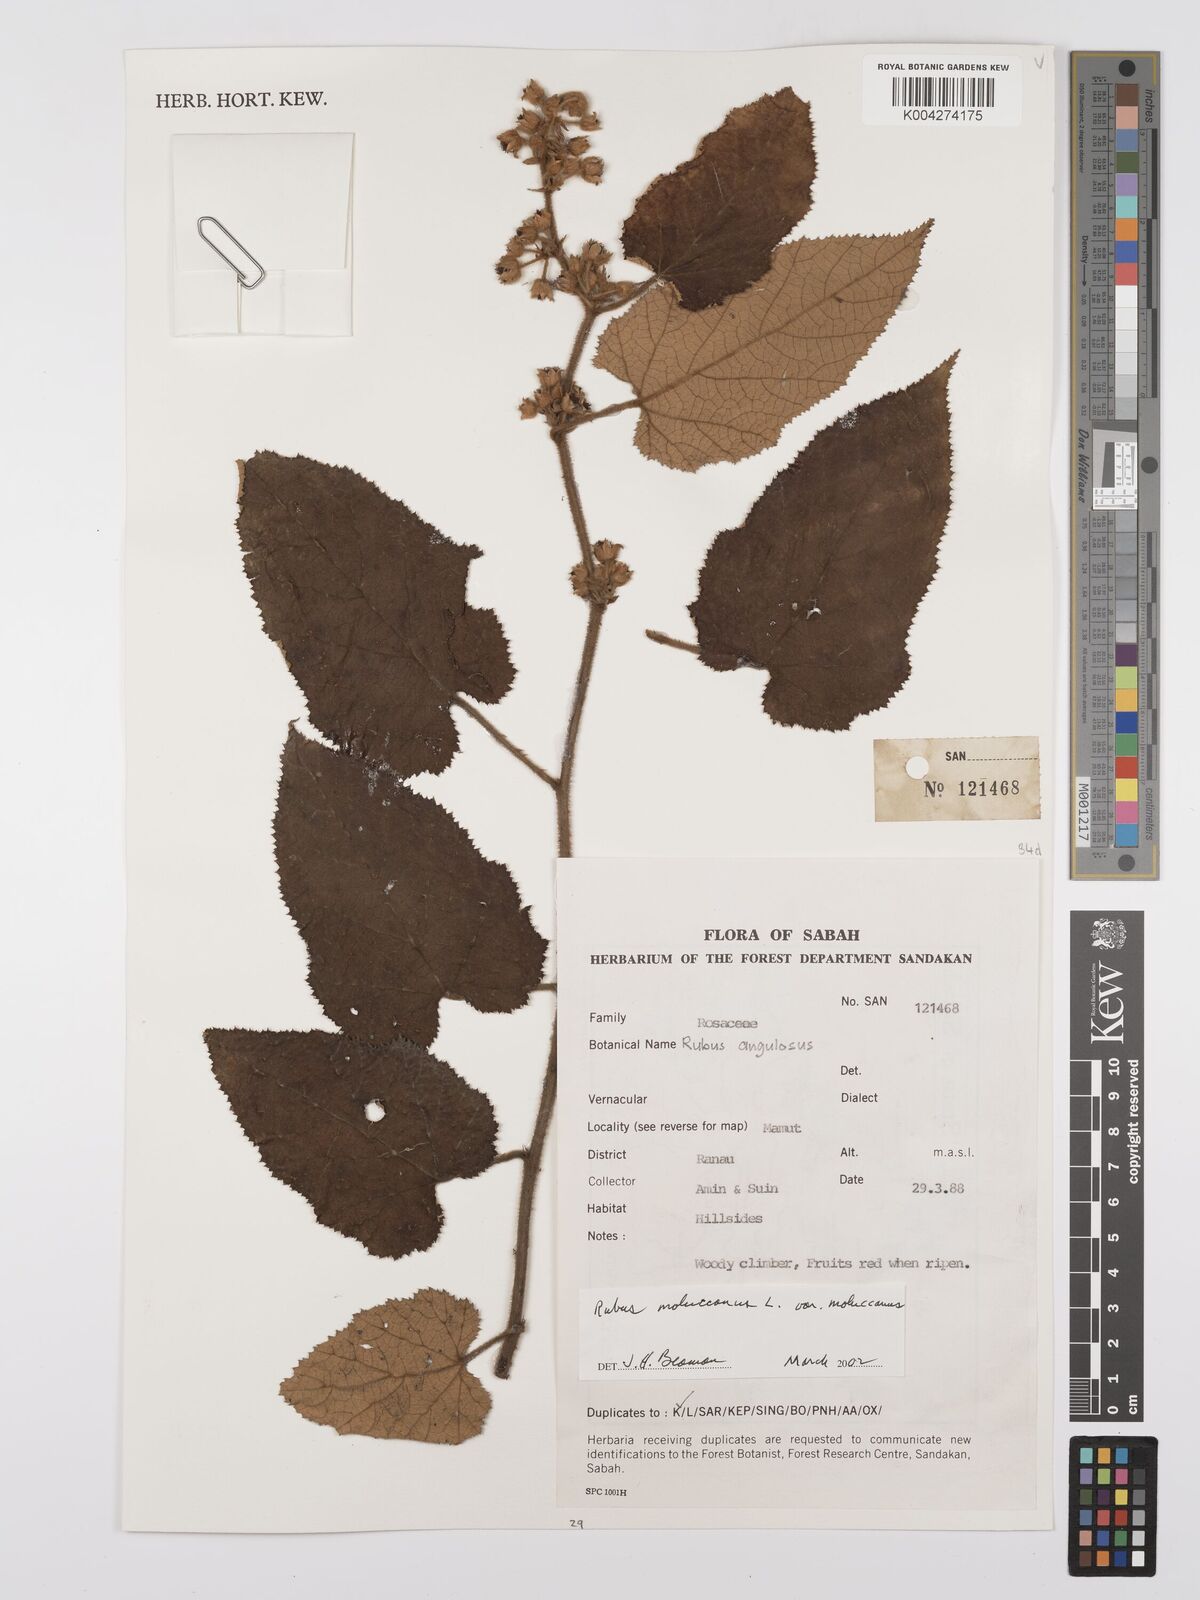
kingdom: Plantae
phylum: Tracheophyta
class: Magnoliopsida
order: Rosales
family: Rosaceae
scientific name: Rosaceae
